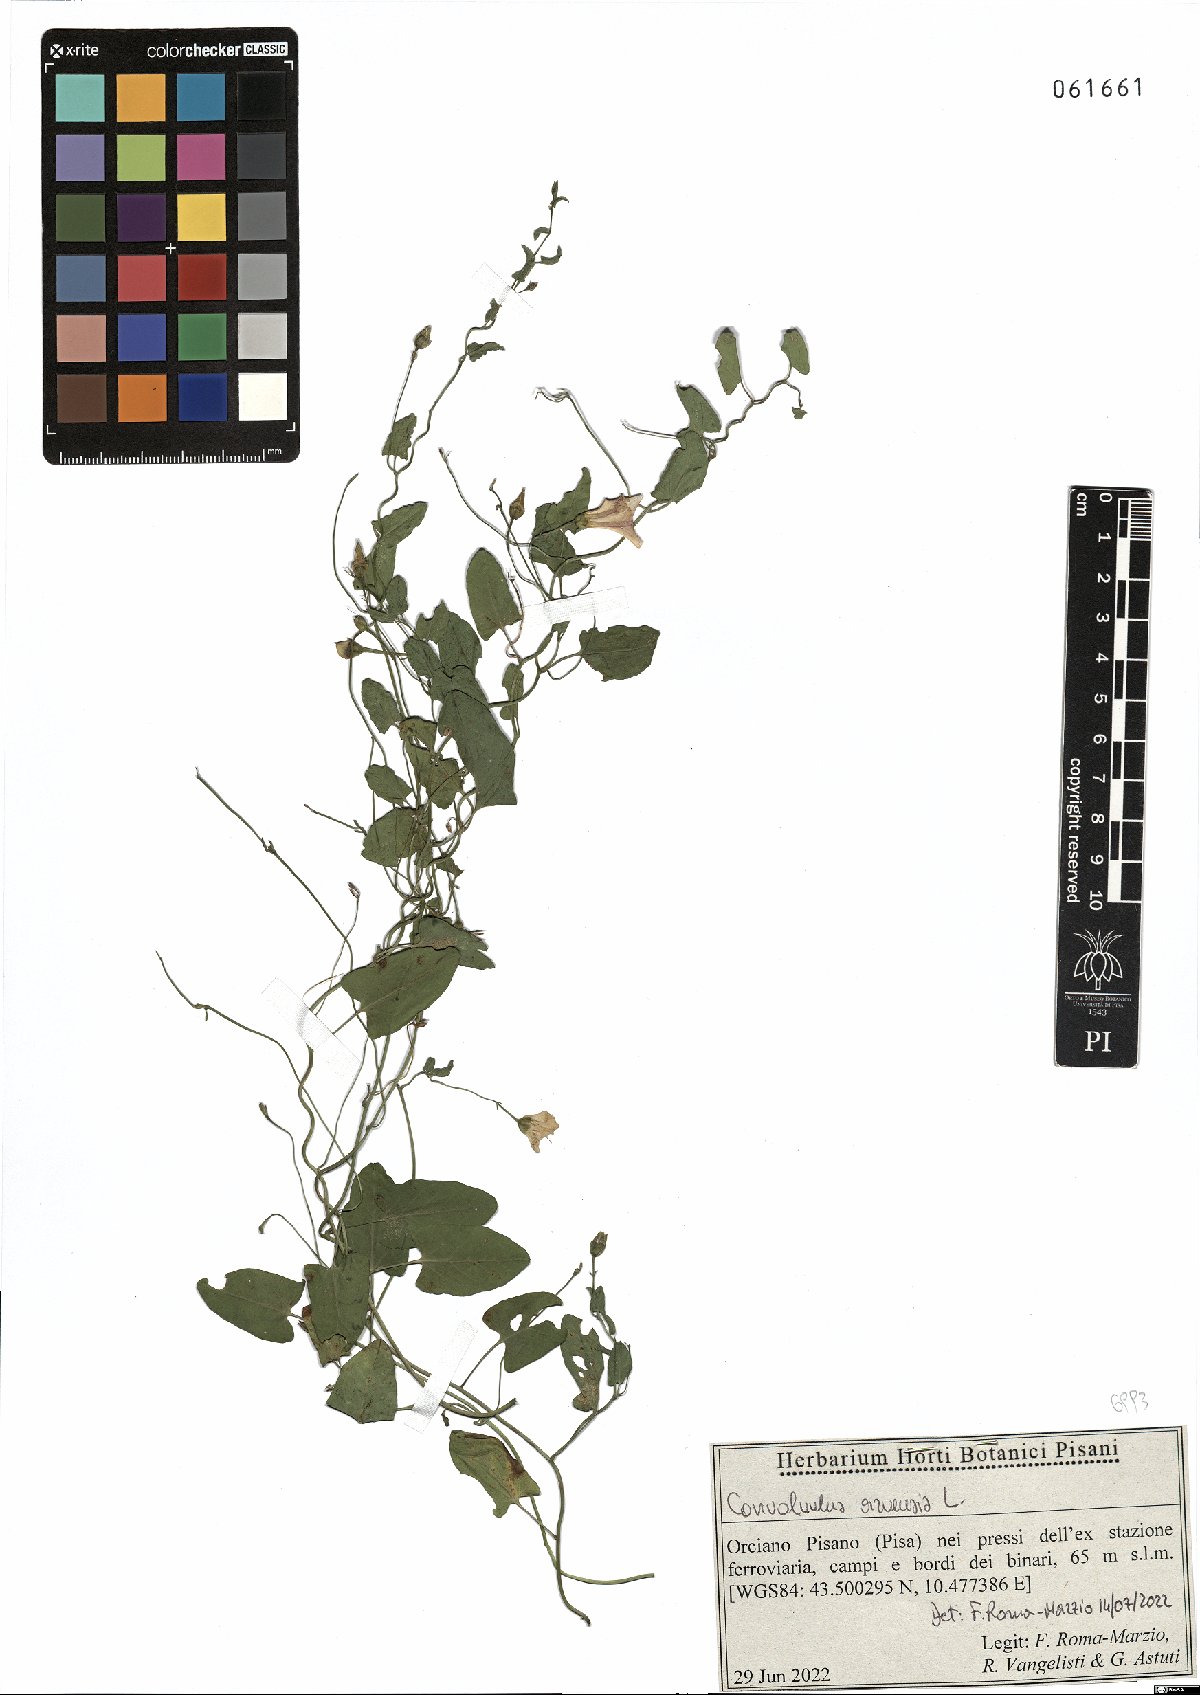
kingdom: Plantae
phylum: Tracheophyta
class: Magnoliopsida
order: Solanales
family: Convolvulaceae
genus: Convolvulus
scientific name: Convolvulus arvensis
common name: Field bindweed
